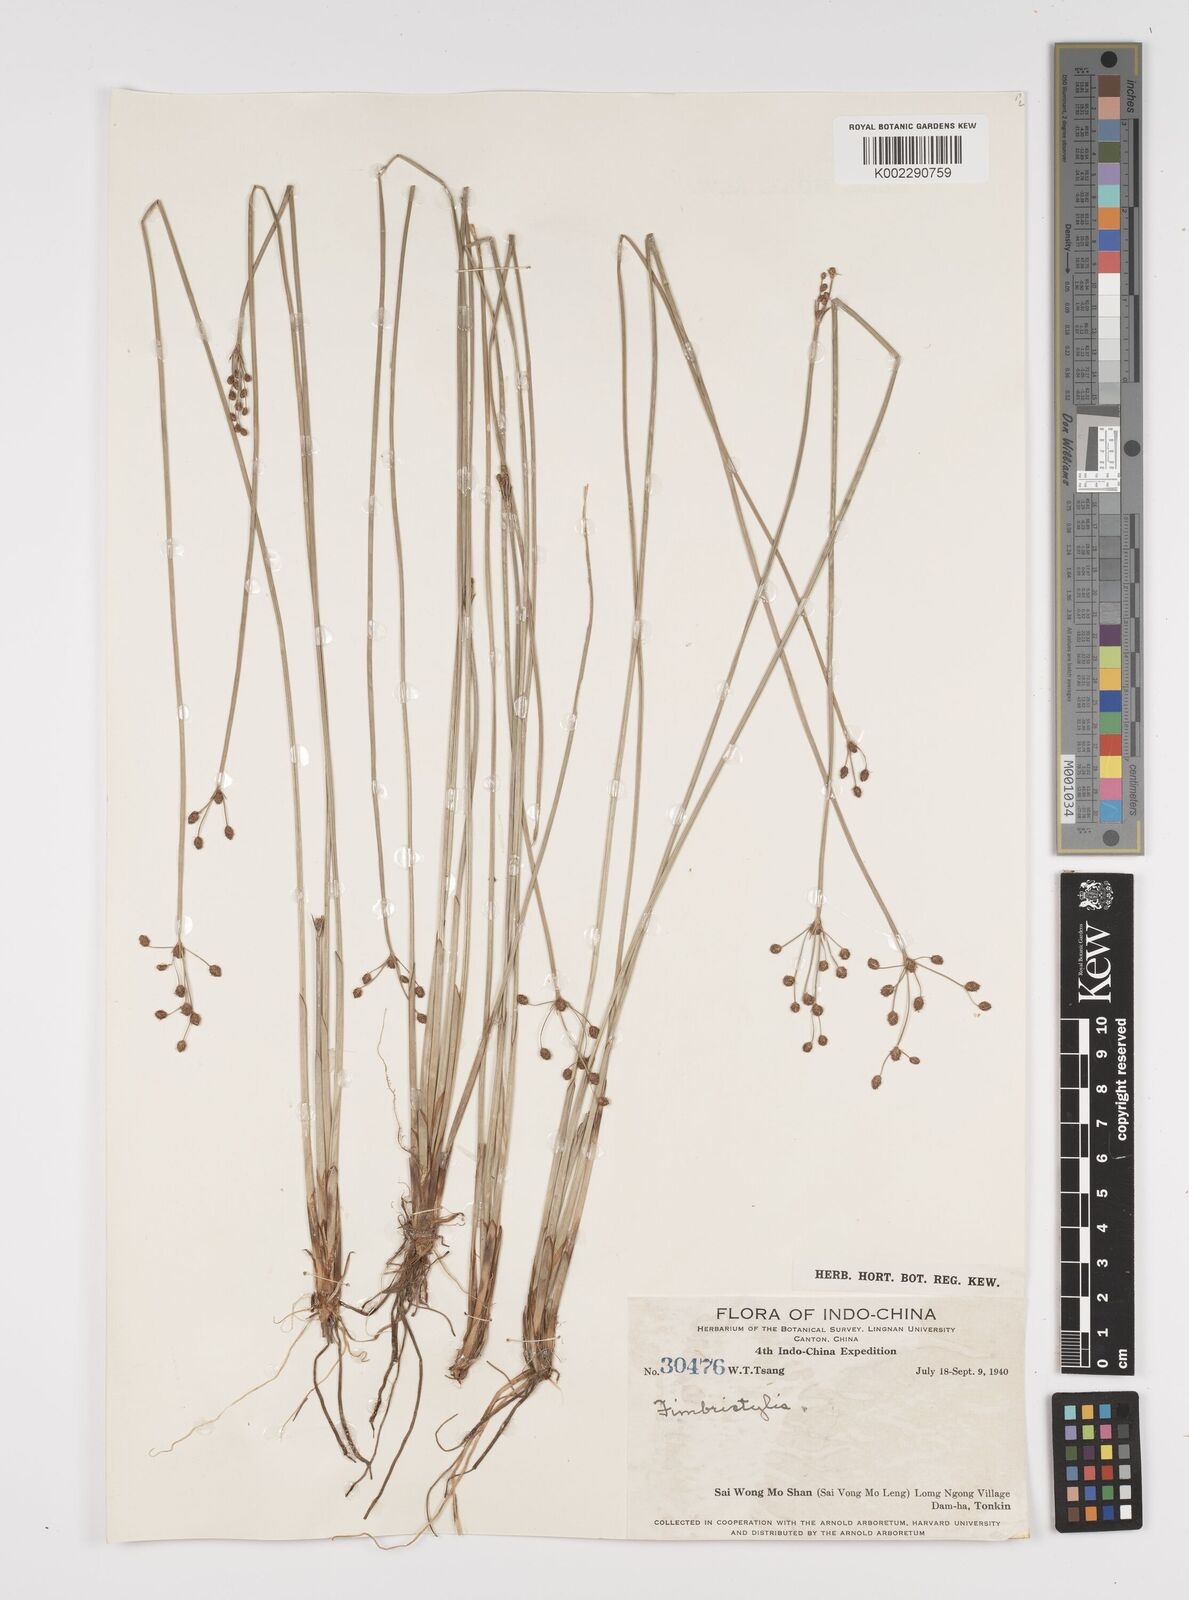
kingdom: Plantae
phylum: Tracheophyta
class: Liliopsida
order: Poales
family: Cyperaceae
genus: Fimbristylis
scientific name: Fimbristylis
